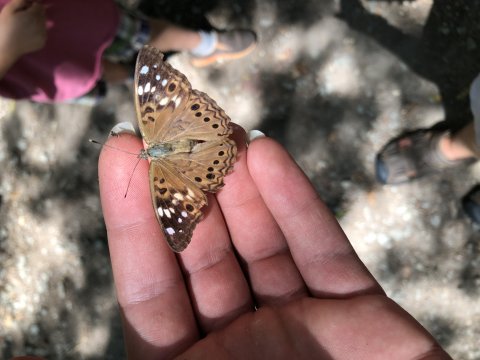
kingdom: Animalia
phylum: Arthropoda
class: Insecta
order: Lepidoptera
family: Nymphalidae
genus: Asterocampa
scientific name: Asterocampa celtis
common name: Hackberry Emperor
